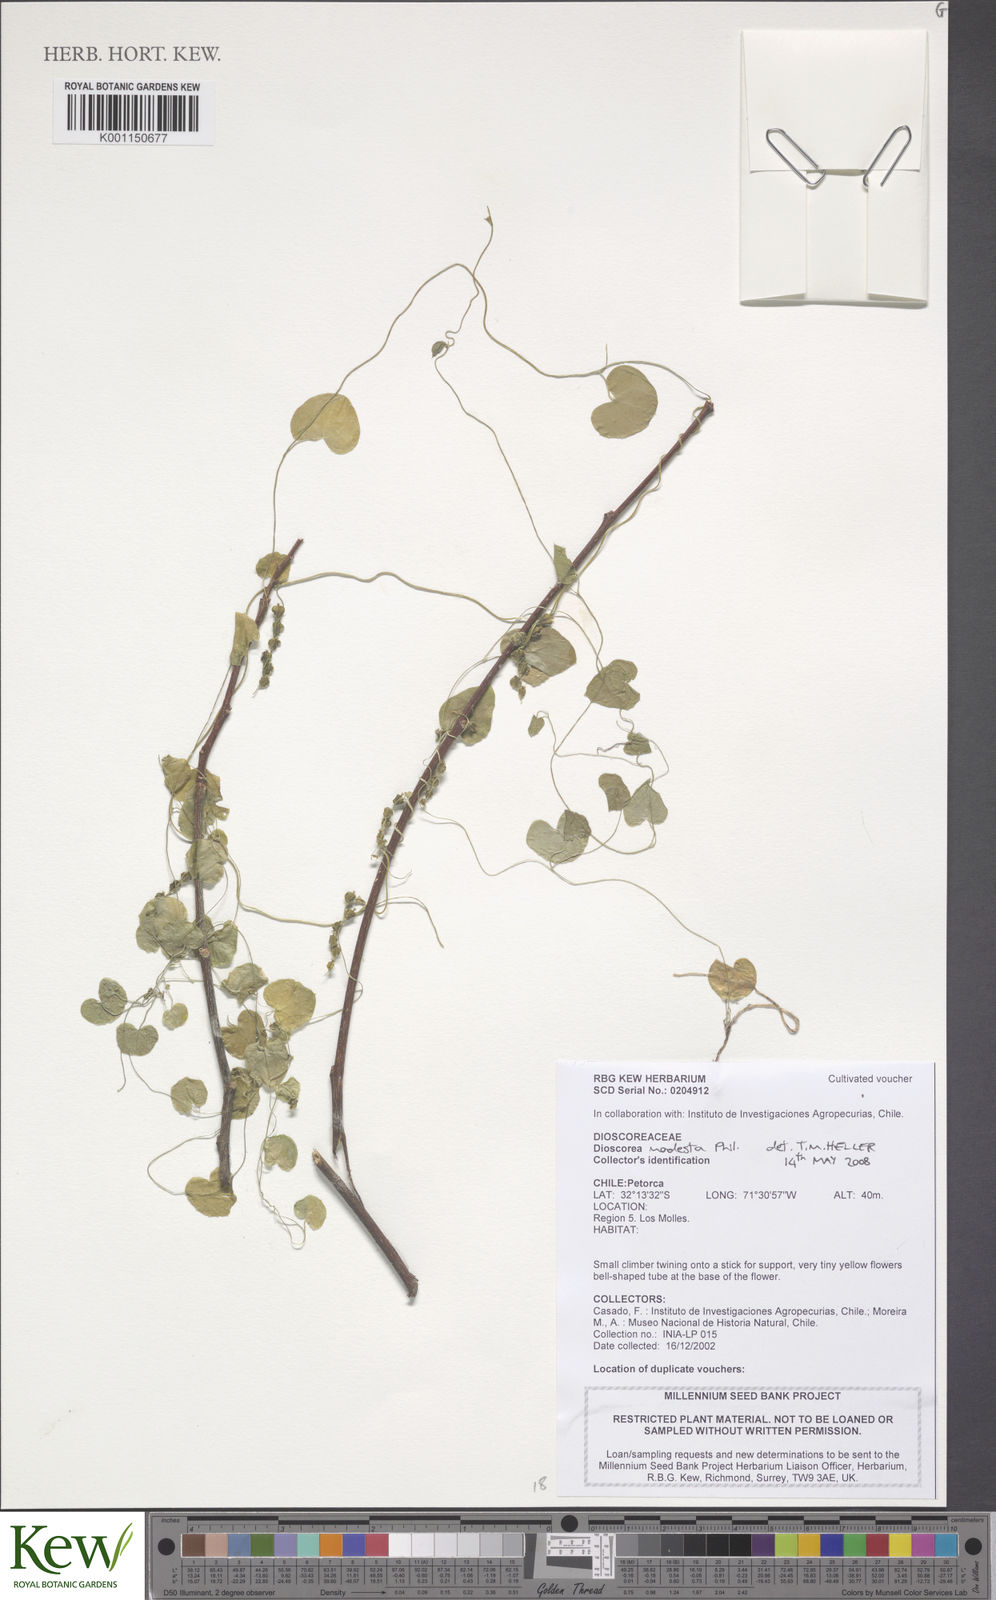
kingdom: Plantae
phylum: Tracheophyta
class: Liliopsida
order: Dioscoreales
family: Dioscoreaceae
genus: Dioscorea
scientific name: Dioscorea modesta
